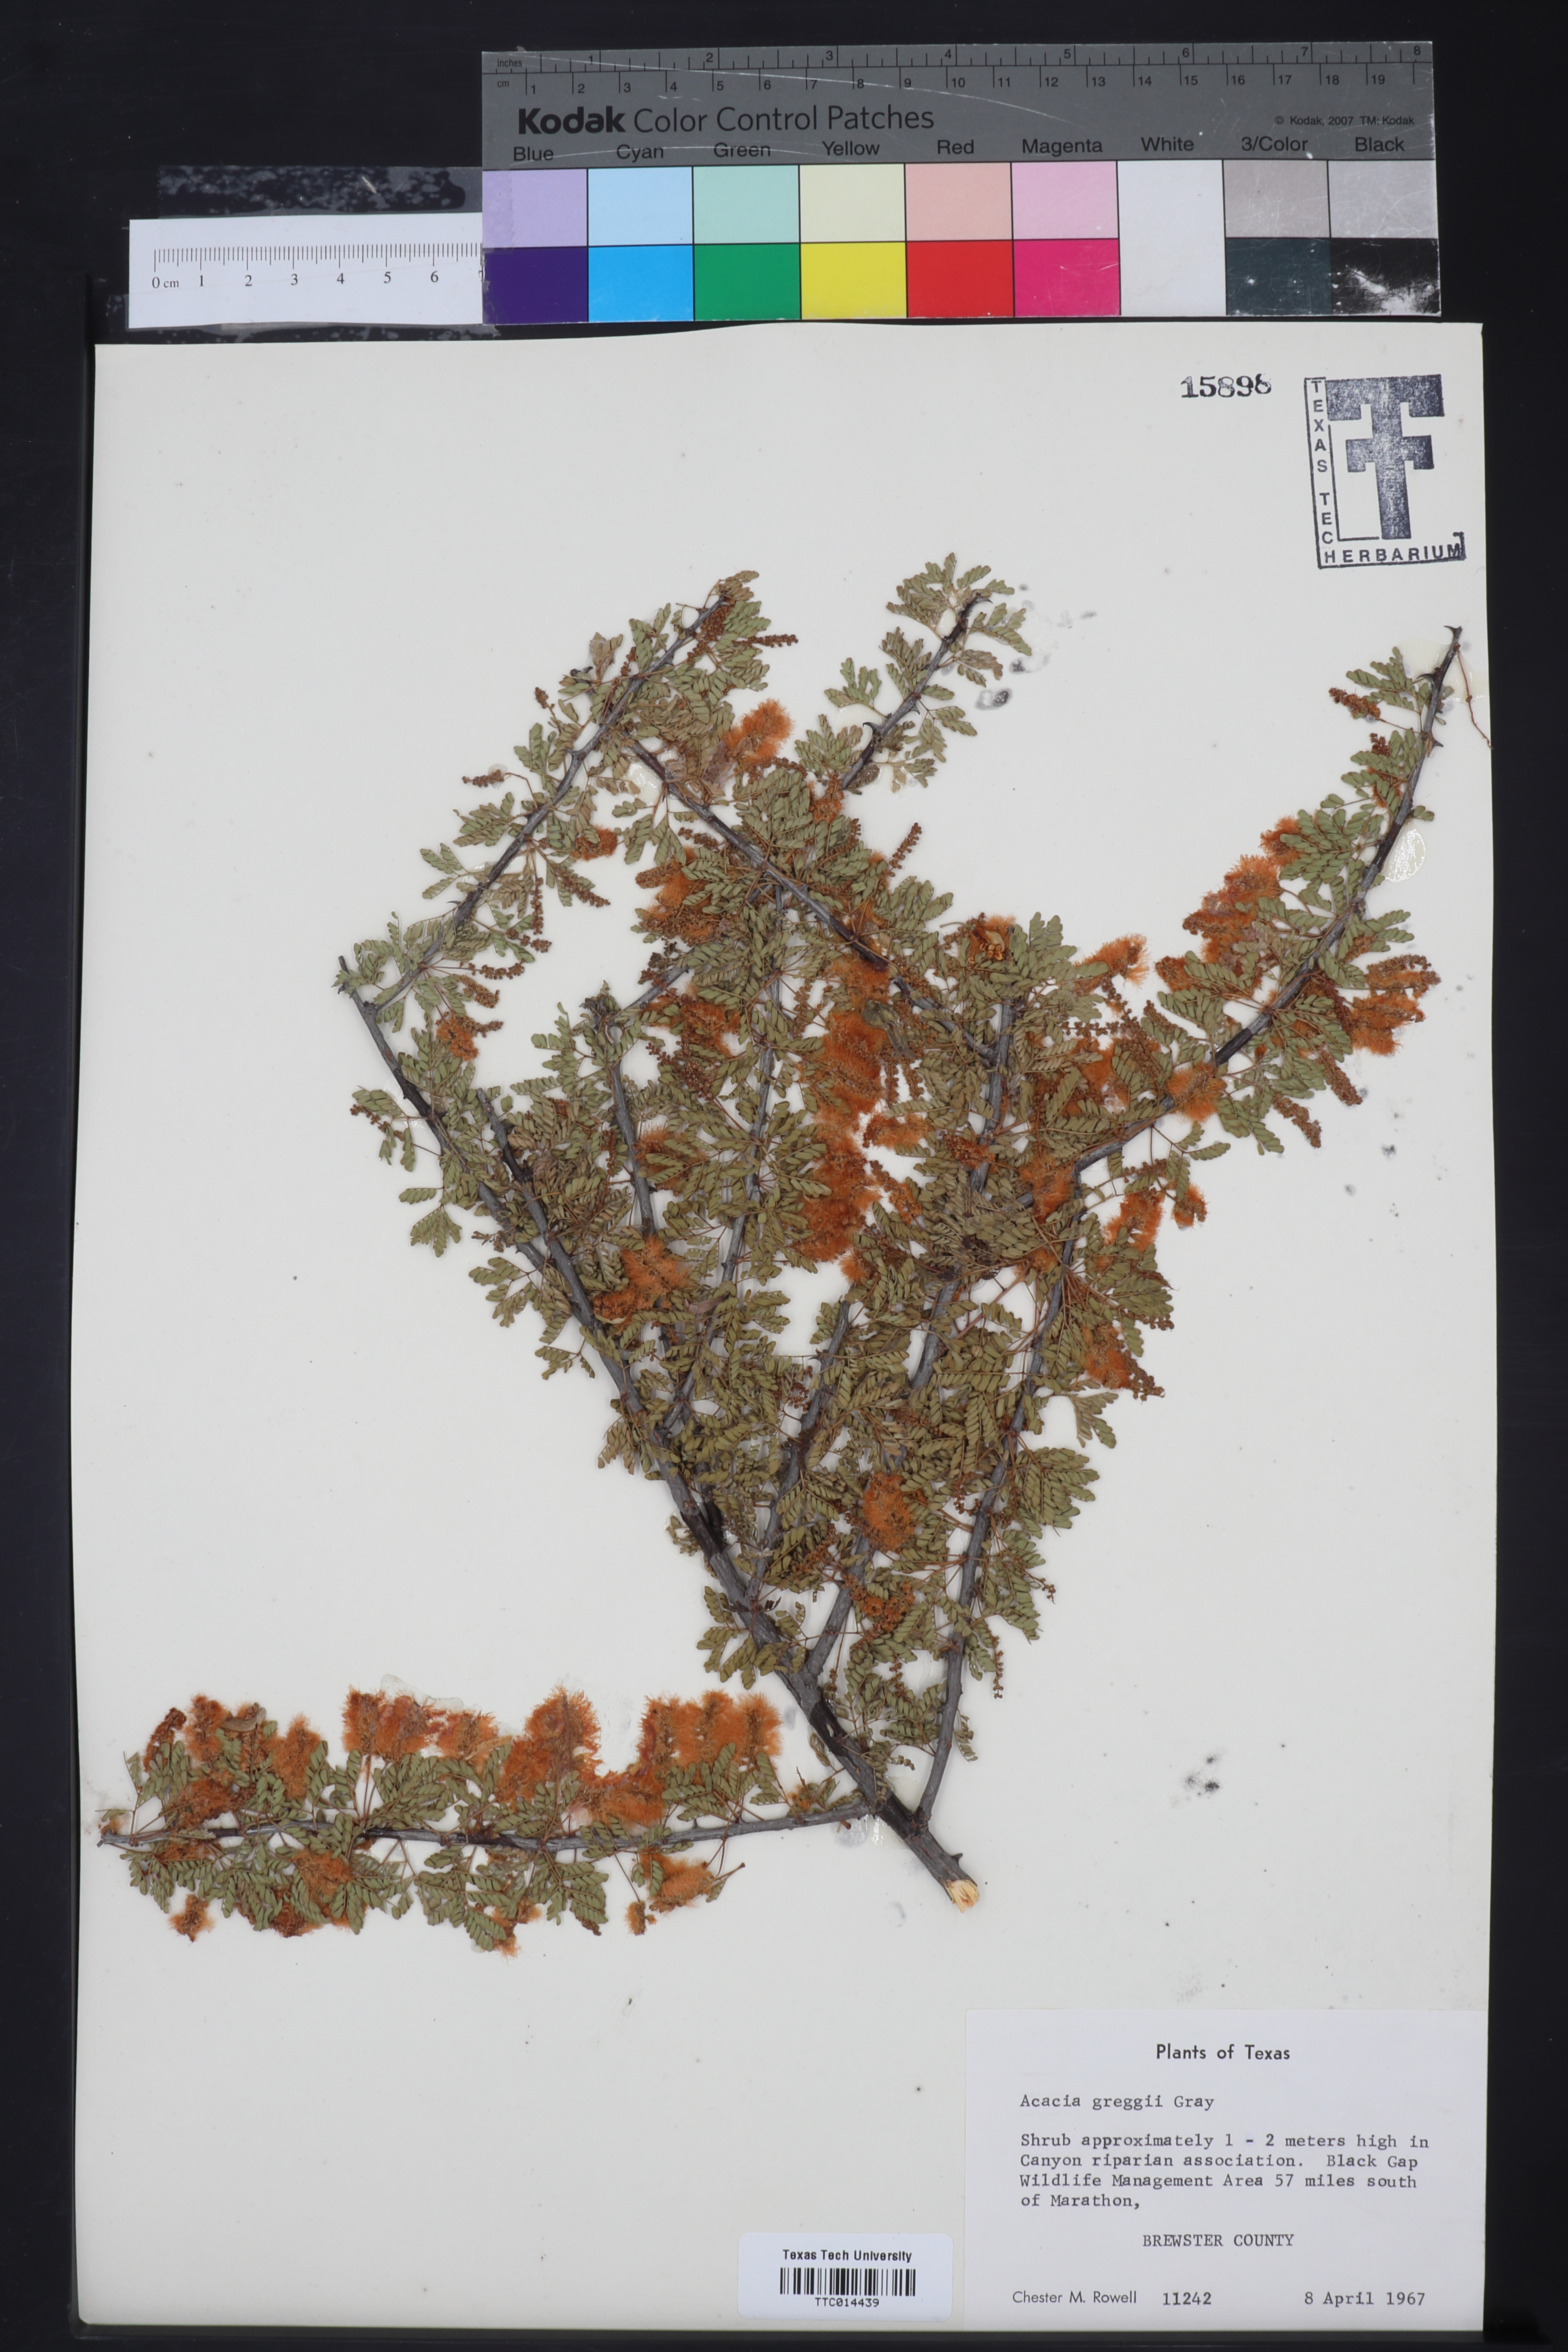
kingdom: Plantae
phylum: Tracheophyta
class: Magnoliopsida
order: Fabales
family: Fabaceae
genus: Senegalia
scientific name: Senegalia greggii
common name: Texas-mimosa
